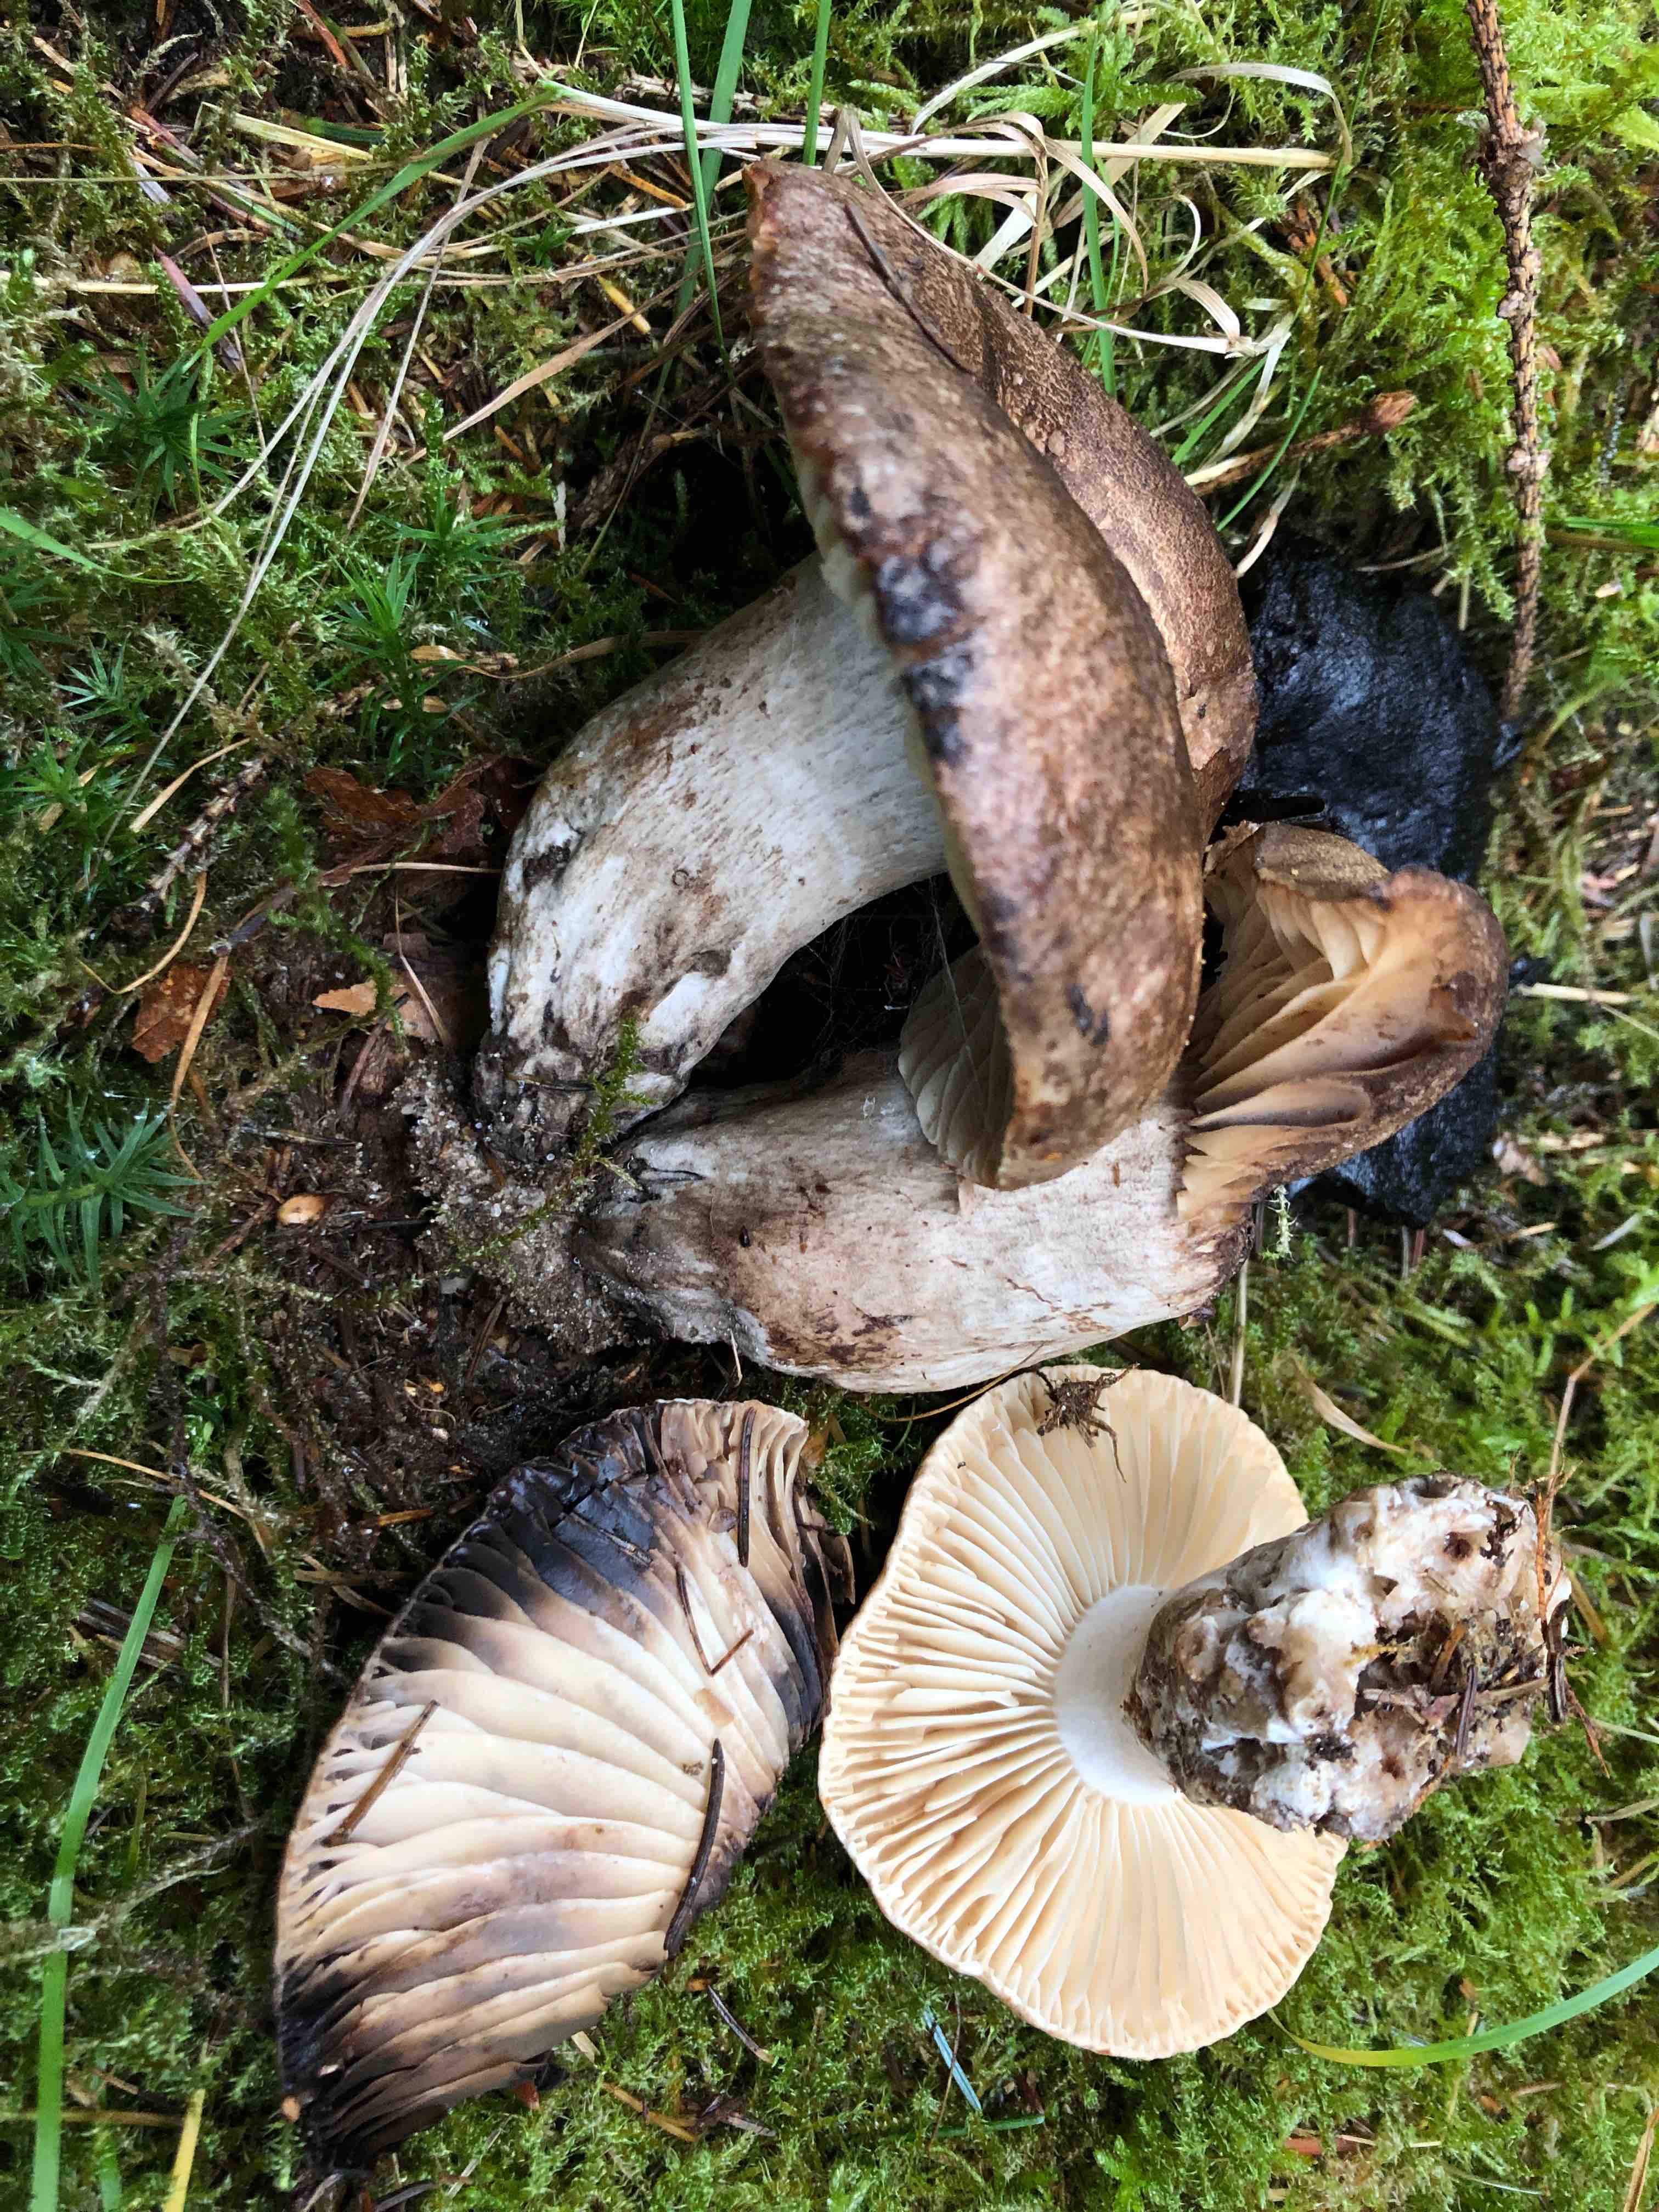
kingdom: Fungi
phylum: Basidiomycota
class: Agaricomycetes
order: Russulales
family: Russulaceae
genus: Russula
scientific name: Russula adusta
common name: sværtende skørhat
